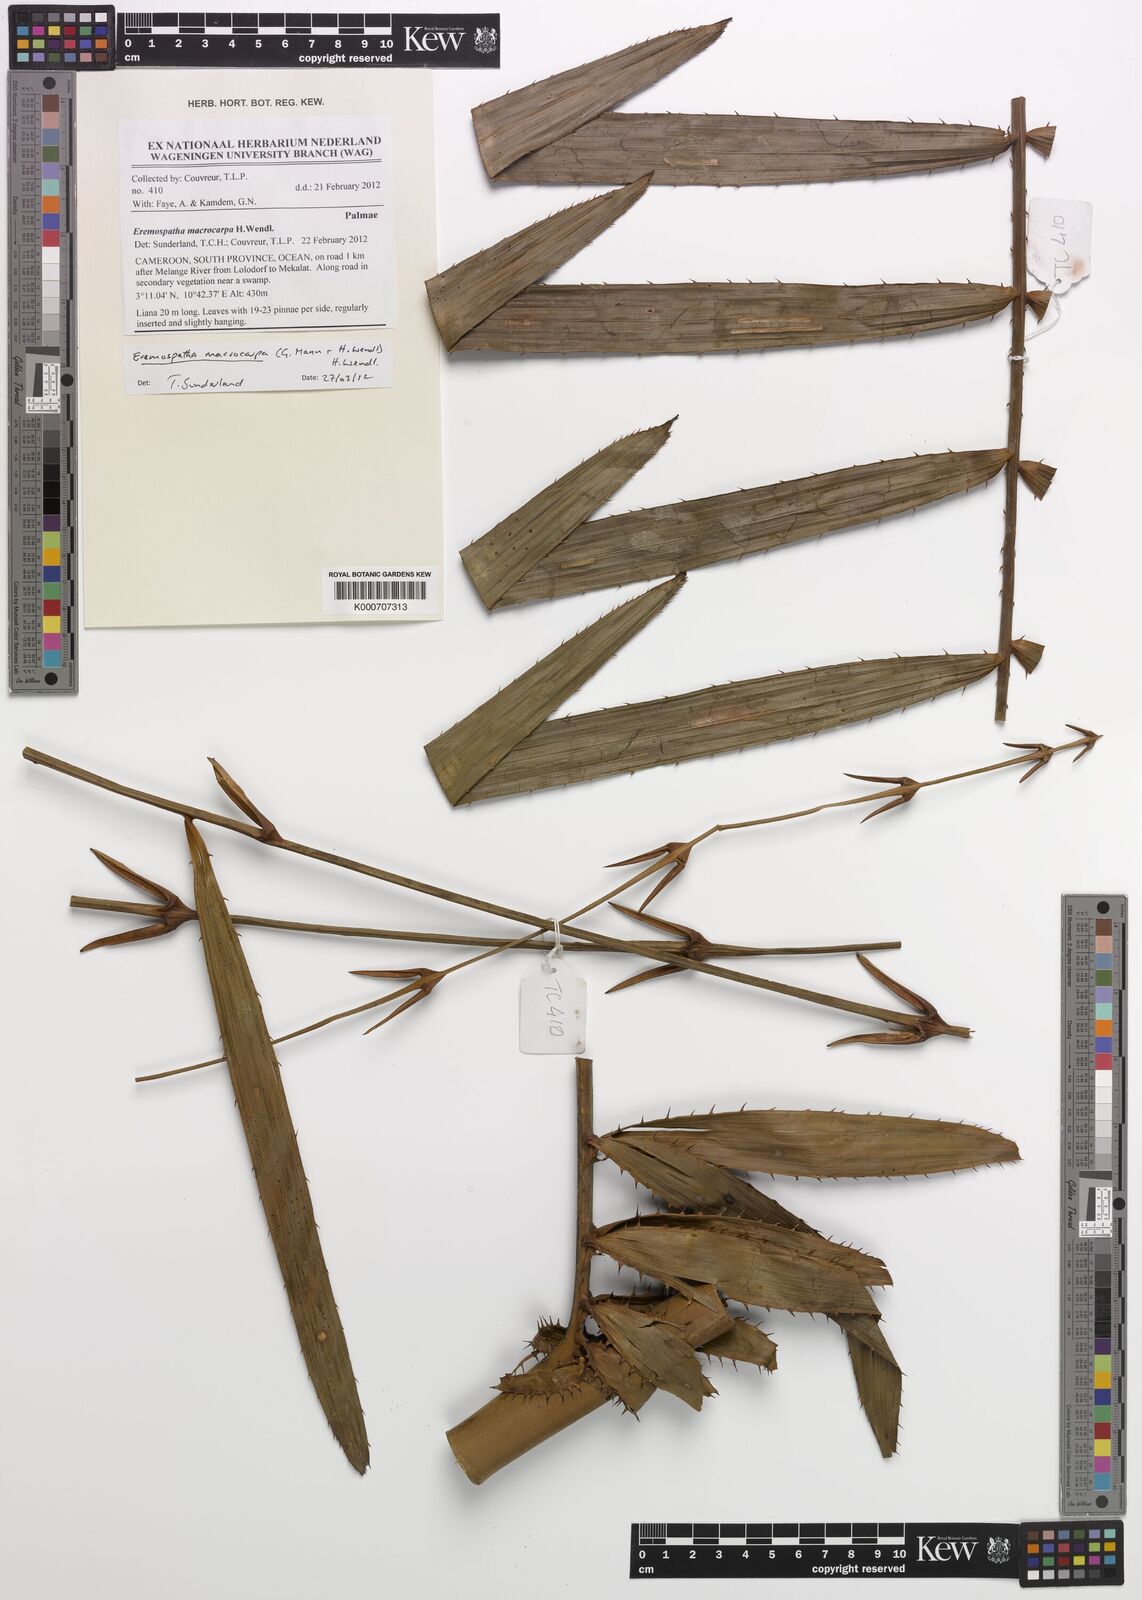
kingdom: Plantae
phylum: Tracheophyta
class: Liliopsida
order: Arecales
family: Arecaceae
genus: Eremospatha
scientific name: Eremospatha macrocarpa
